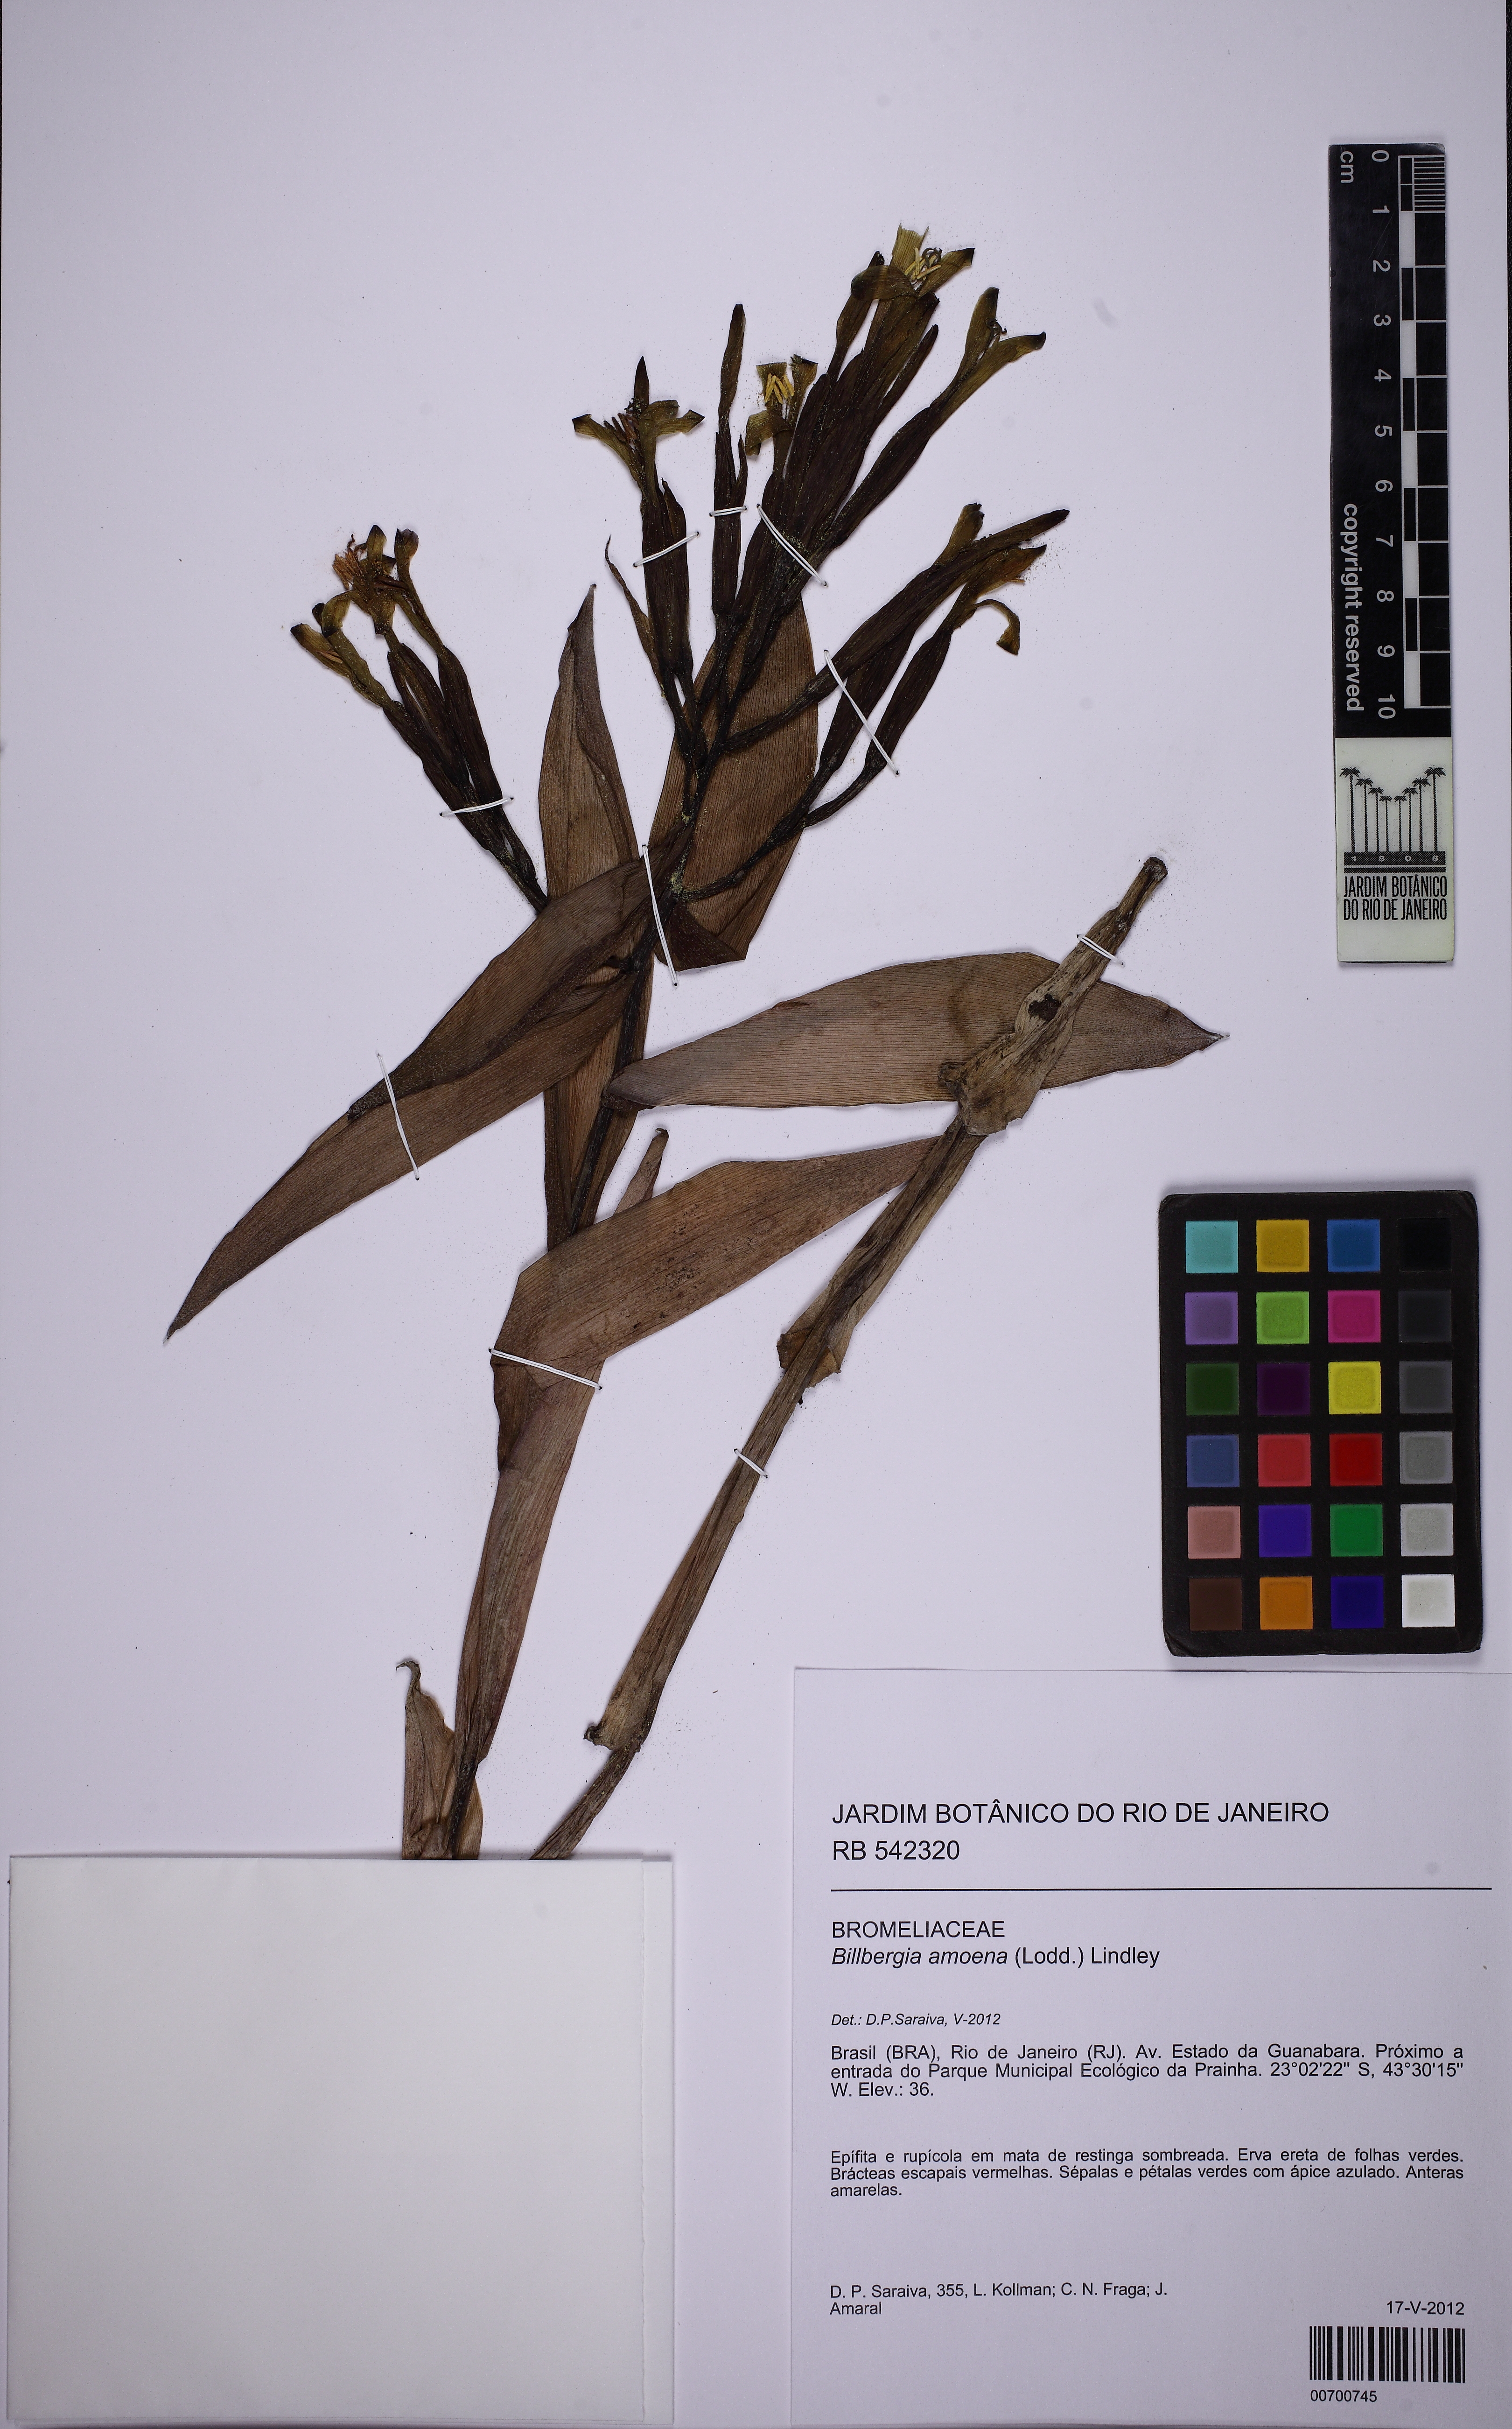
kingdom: Plantae
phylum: Tracheophyta
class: Liliopsida
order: Poales
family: Bromeliaceae
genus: Billbergia
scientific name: Billbergia amoena
